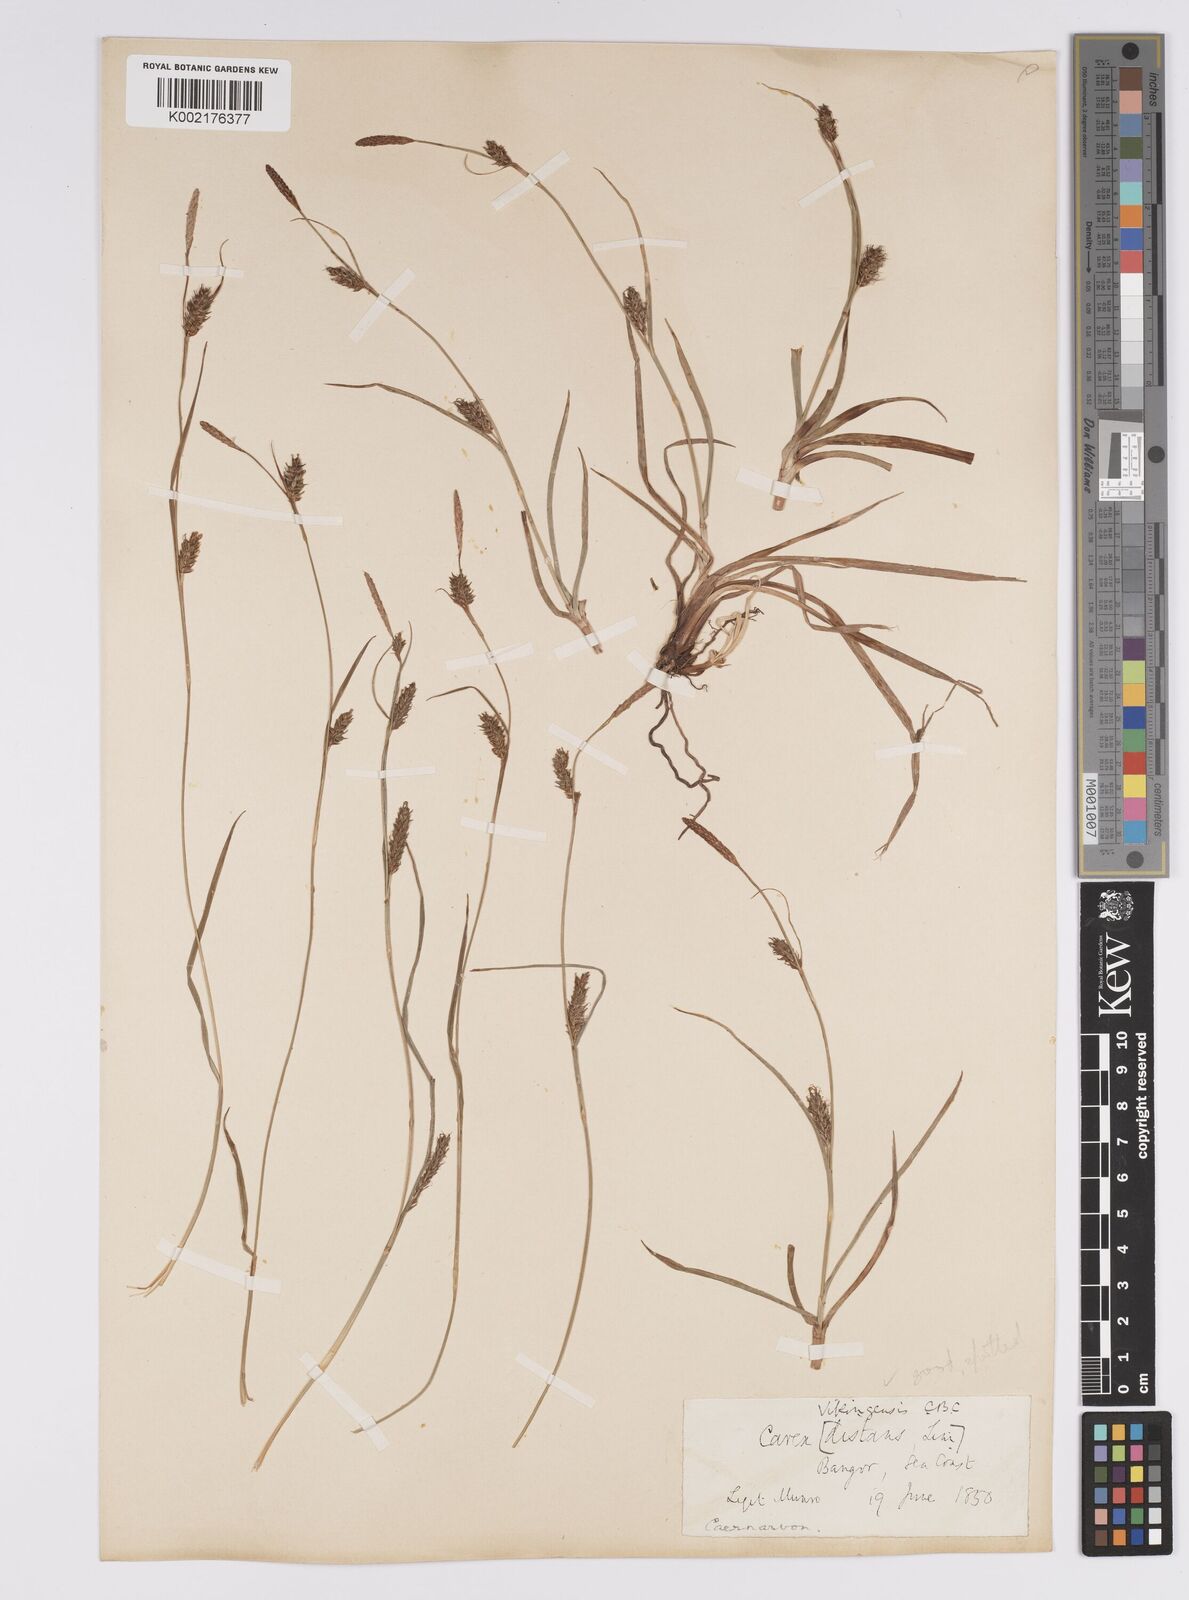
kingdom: Plantae
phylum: Tracheophyta
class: Liliopsida
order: Poales
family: Cyperaceae
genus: Carex
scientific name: Carex distans
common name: Distant sedge
